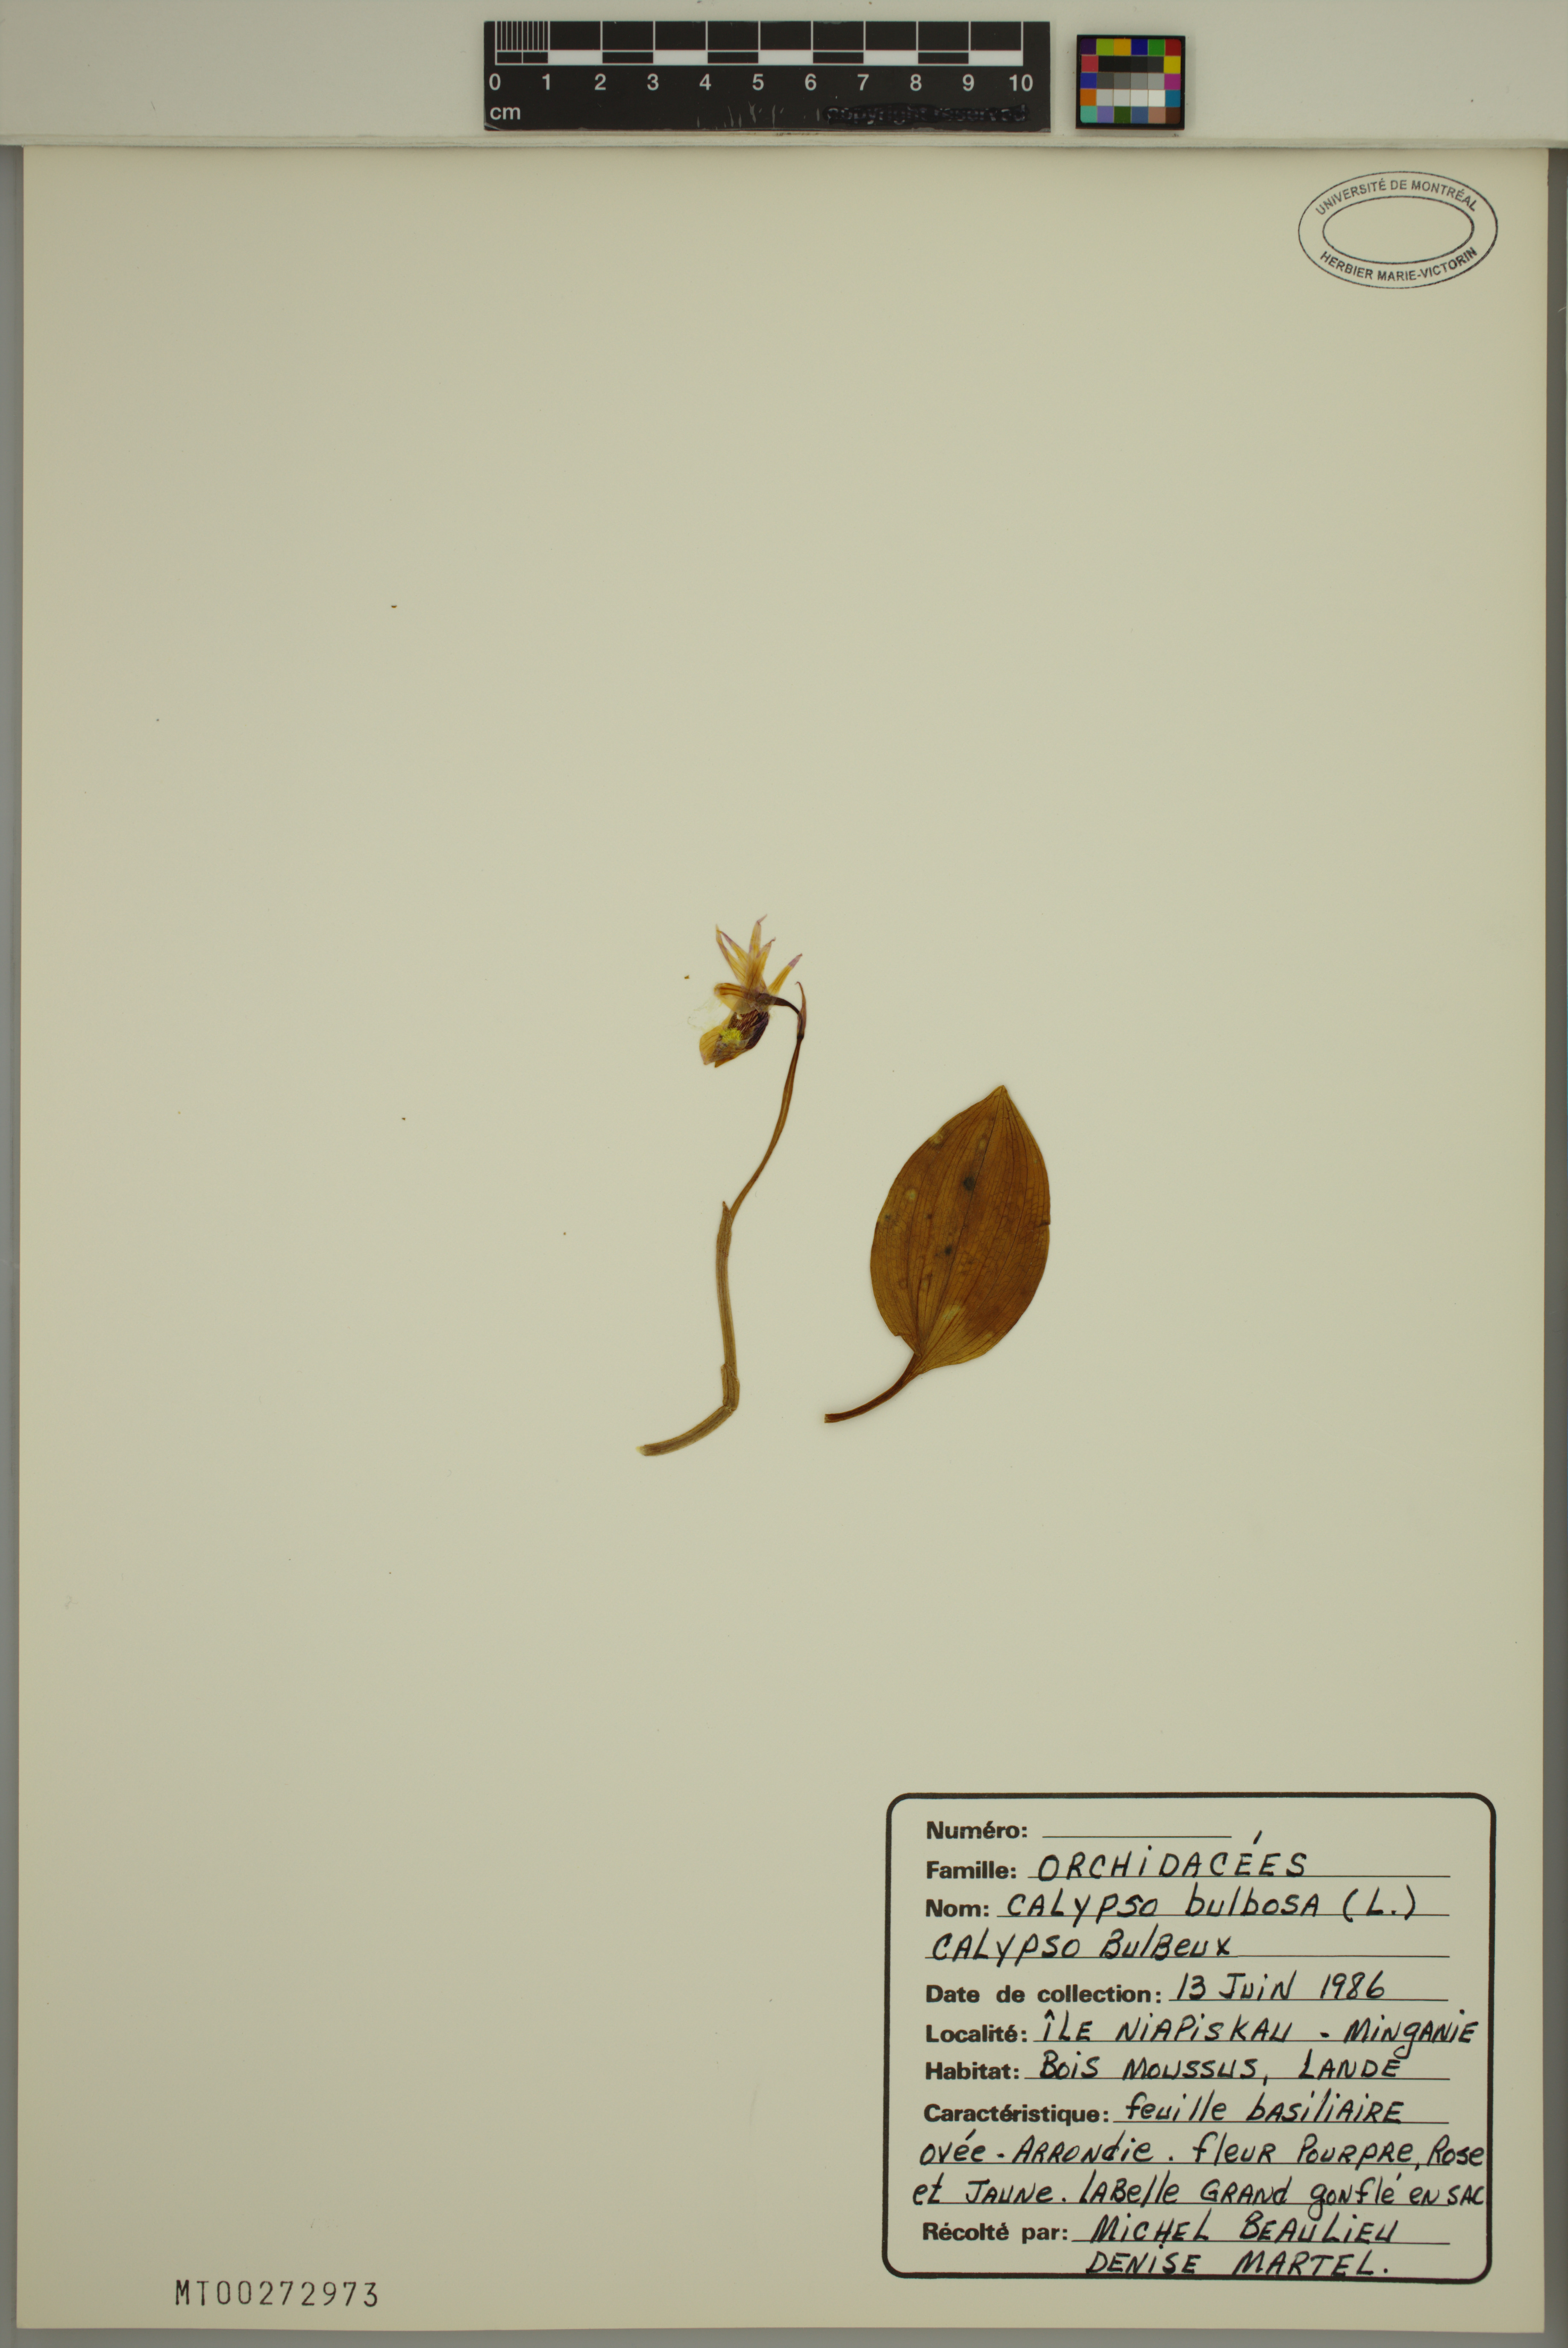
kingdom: Plantae
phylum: Tracheophyta
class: Liliopsida
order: Asparagales
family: Orchidaceae
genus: Calypso
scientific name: Calypso bulbosa
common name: Calypso
